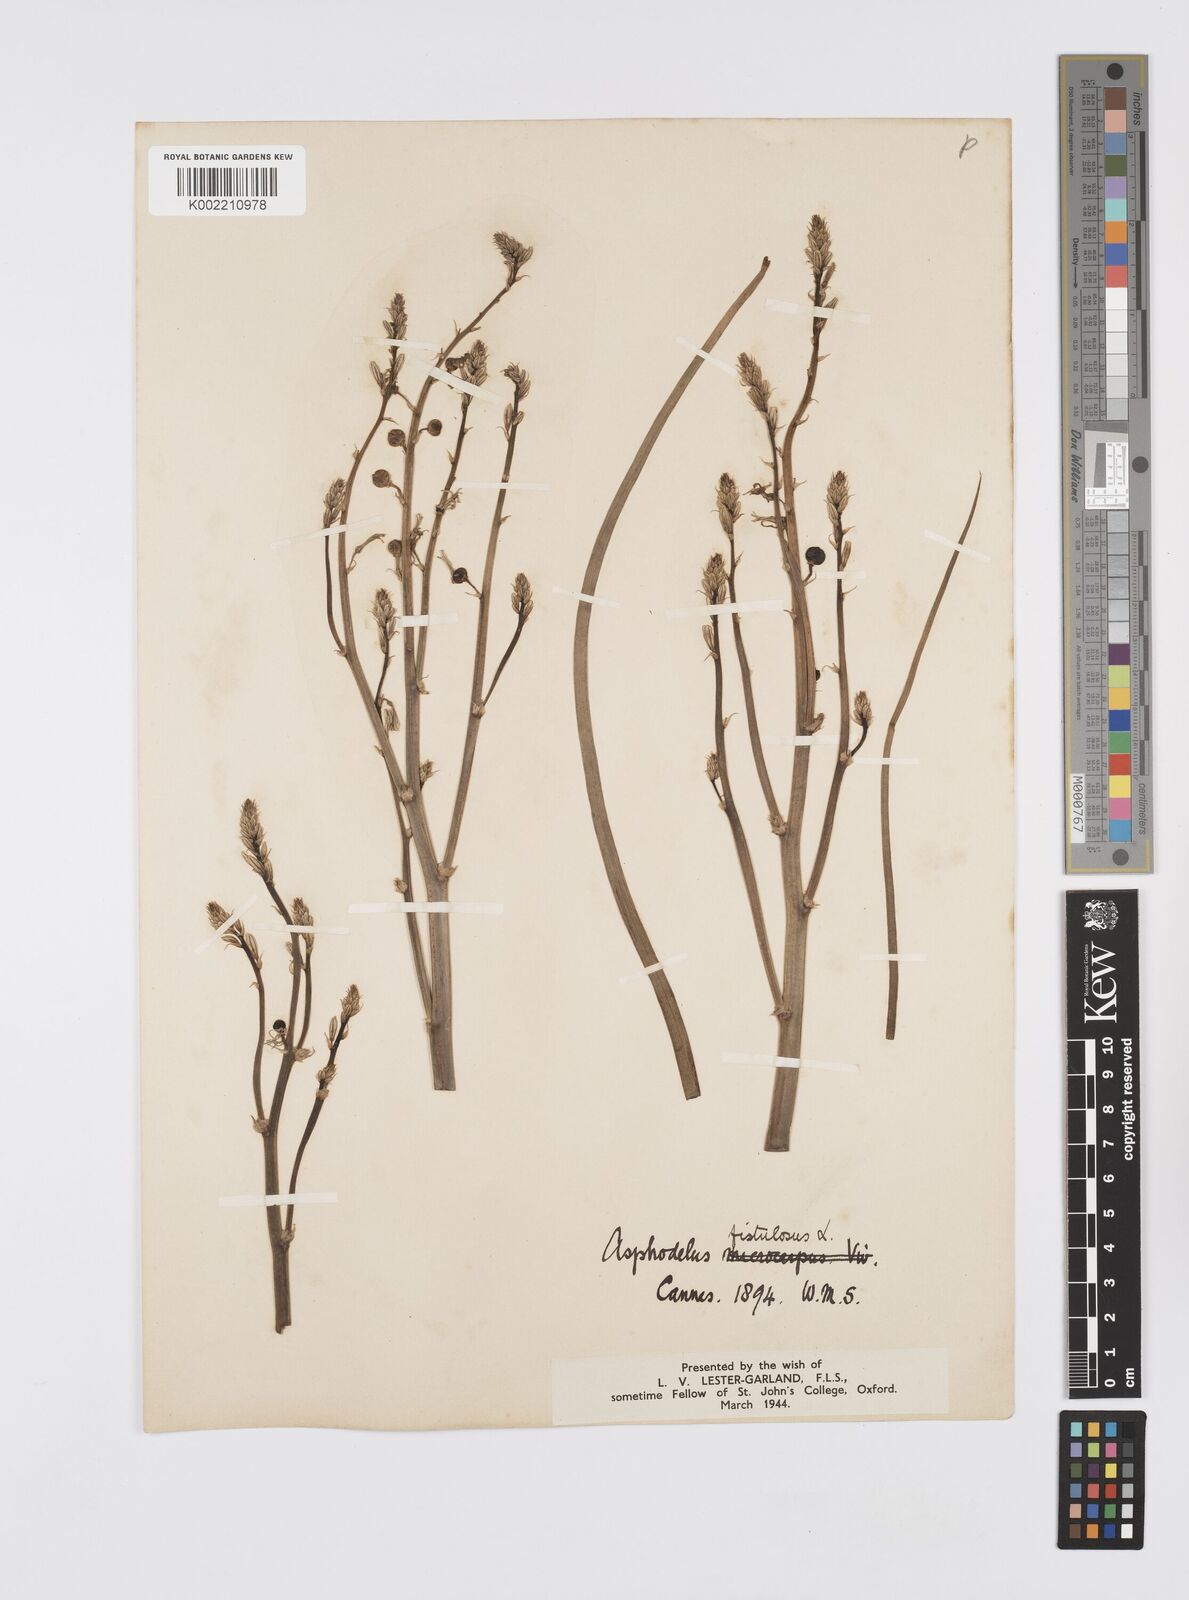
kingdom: Plantae
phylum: Tracheophyta
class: Liliopsida
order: Asparagales
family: Asphodelaceae
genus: Asphodelus
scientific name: Asphodelus fistulosus
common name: Onionweed
